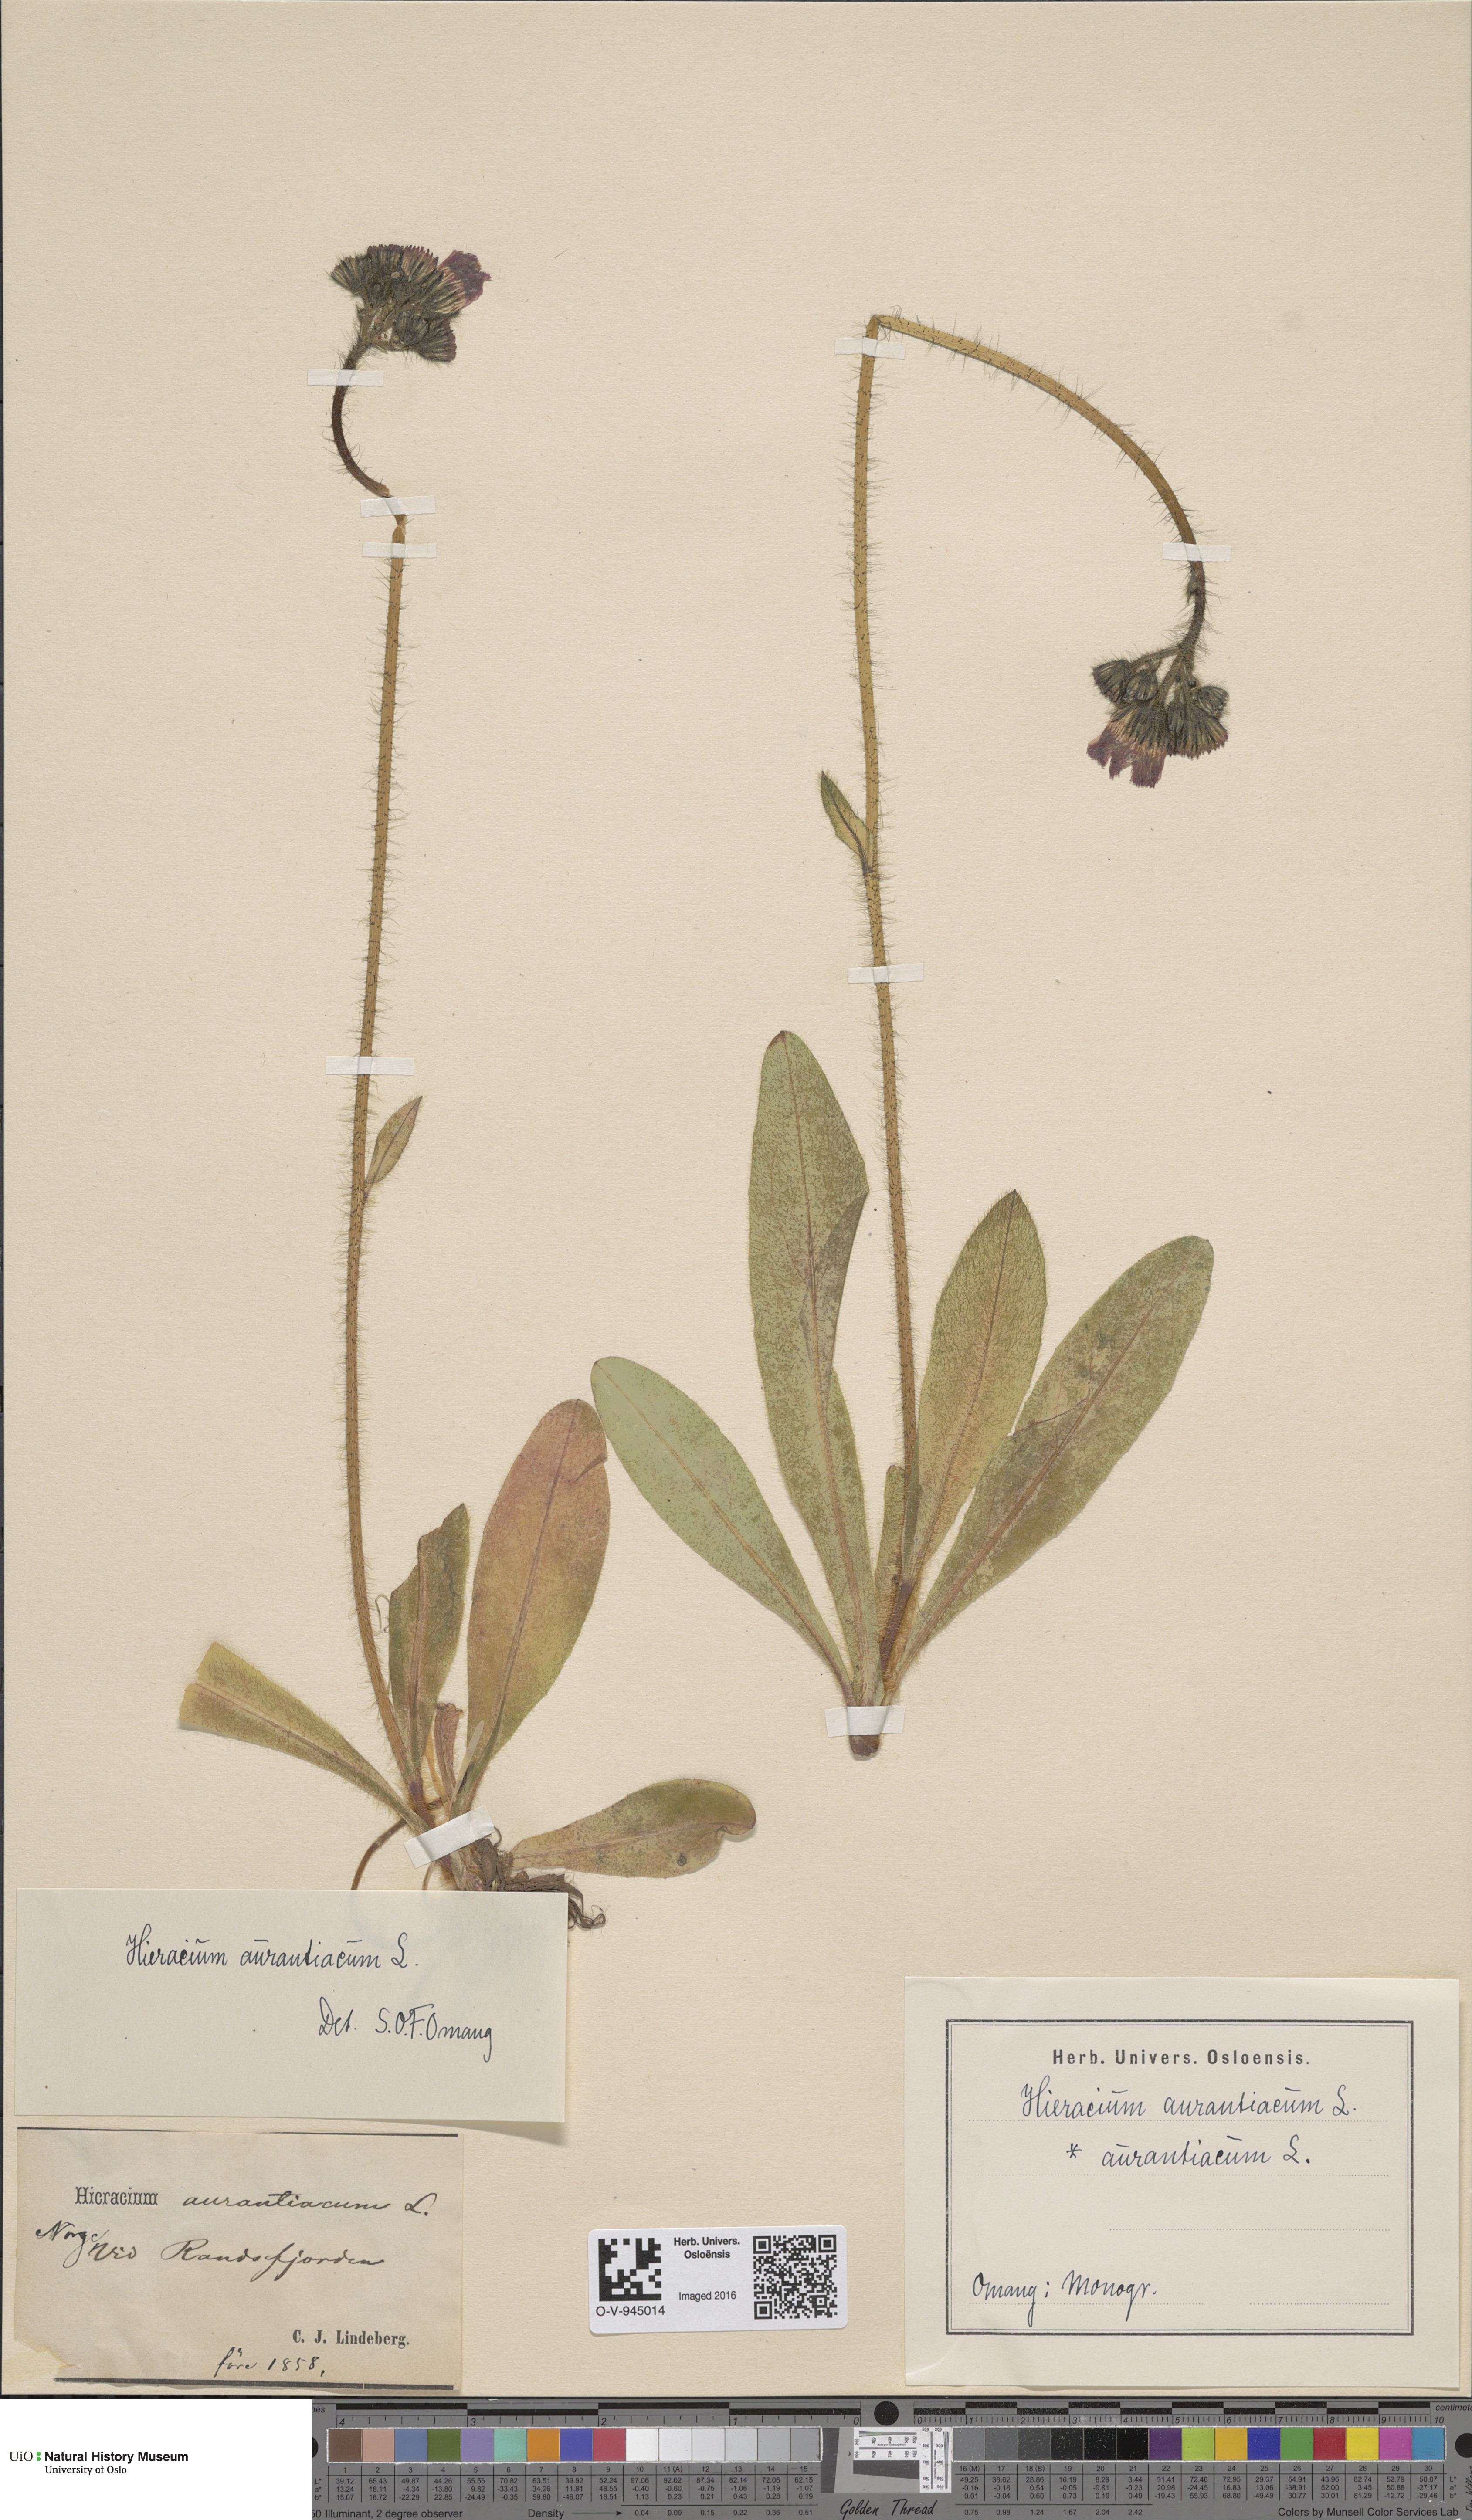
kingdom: Plantae
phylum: Tracheophyta
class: Magnoliopsida
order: Asterales
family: Asteraceae
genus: Pilosella
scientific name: Pilosella aurantiaca
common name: Fox-and-cubs
